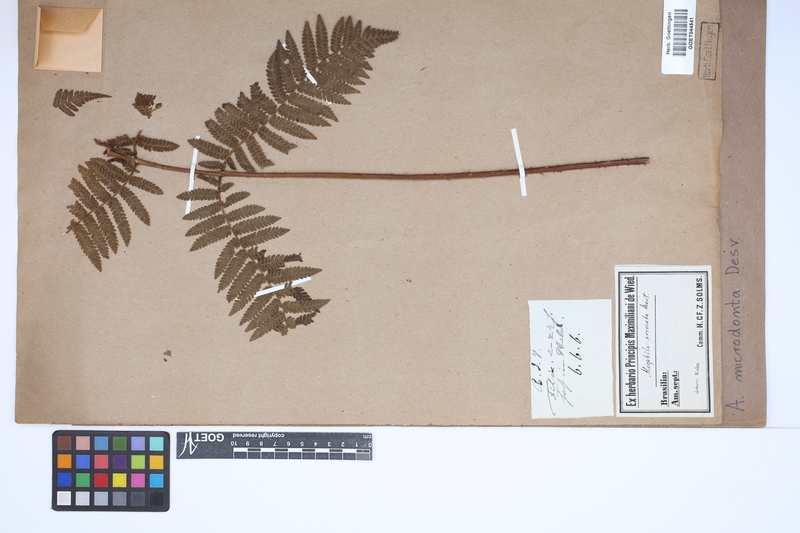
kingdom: Plantae
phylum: Tracheophyta
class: Polypodiopsida
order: Cyatheales
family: Cyatheaceae
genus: Cyathea
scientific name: Cyathea microdonta
